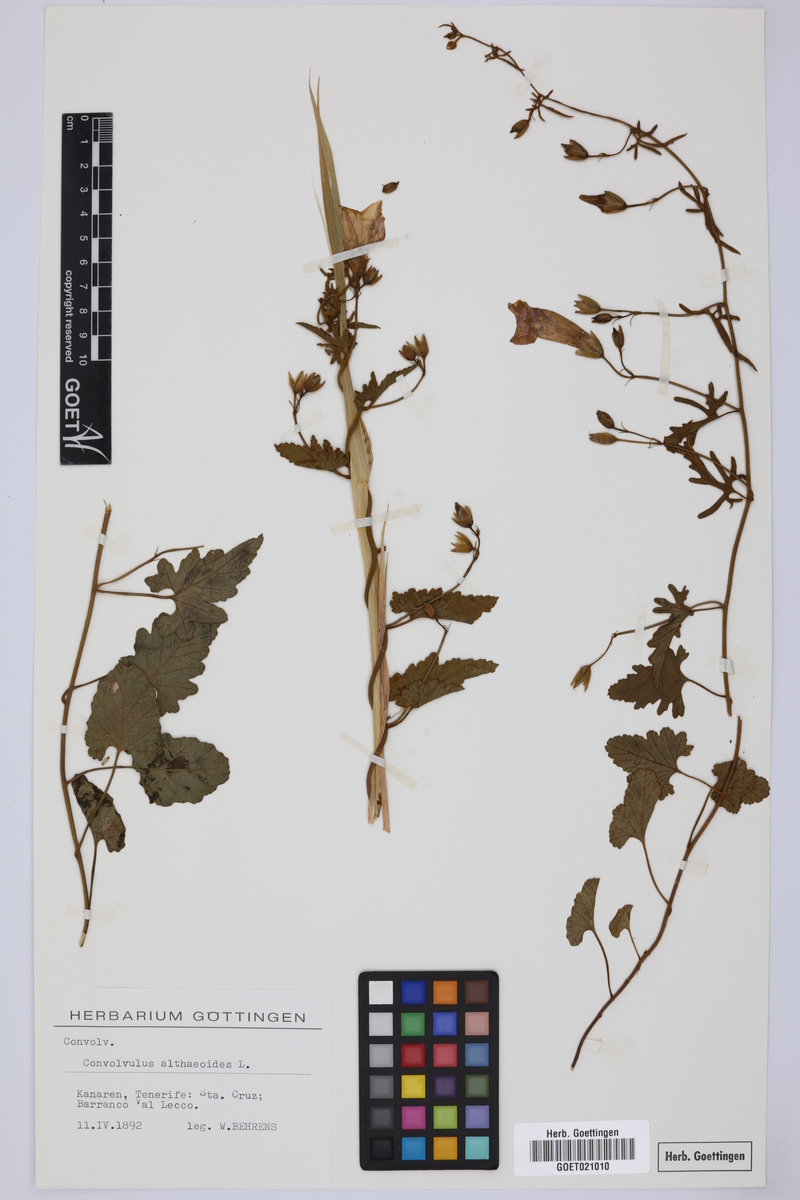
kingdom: Plantae
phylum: Tracheophyta
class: Magnoliopsida
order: Solanales
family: Convolvulaceae
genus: Convolvulus
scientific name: Convolvulus althaeoides
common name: Mallow bindweed
